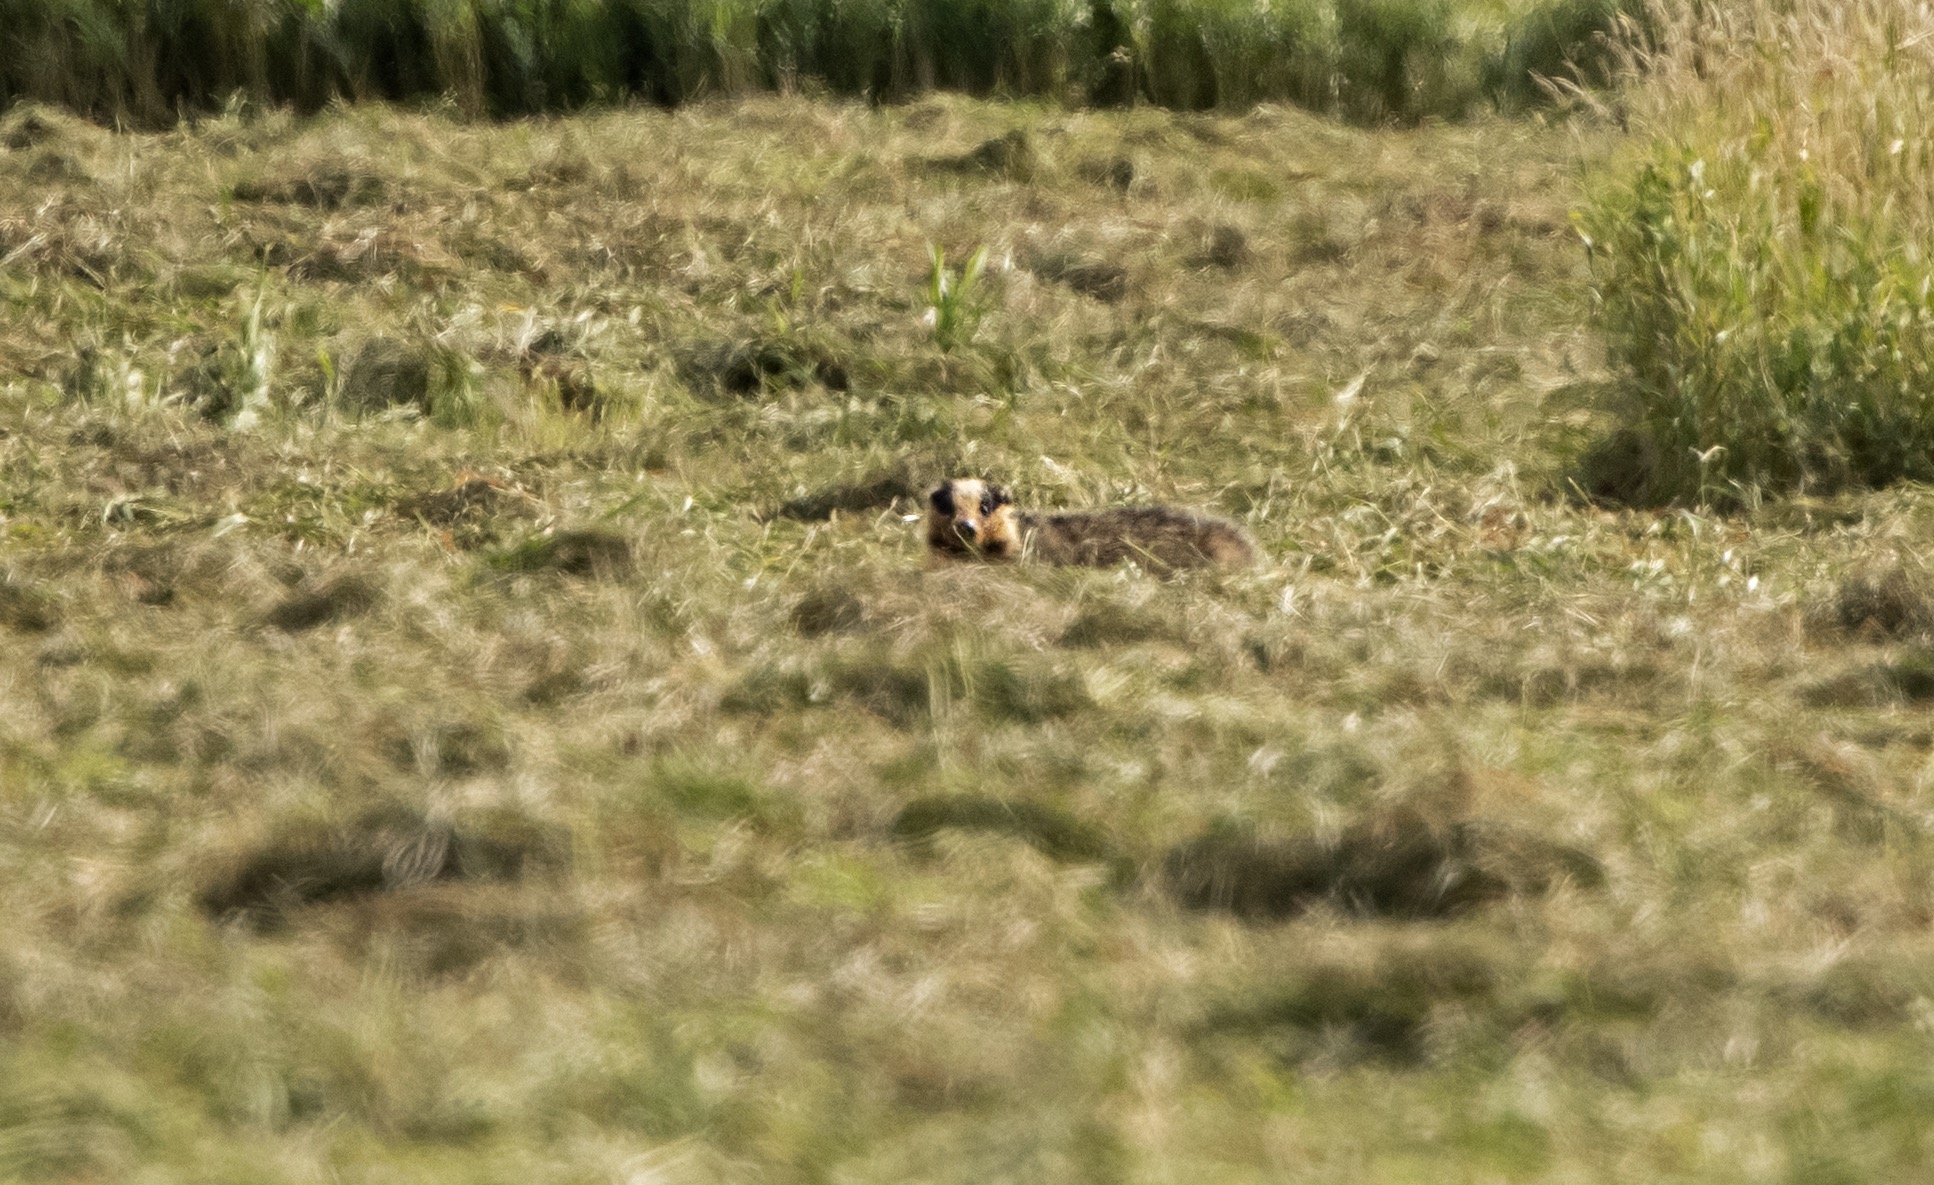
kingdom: Animalia
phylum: Chordata
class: Mammalia
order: Carnivora
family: Mustelidae
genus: Meles
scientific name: Meles meles
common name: Grævling
